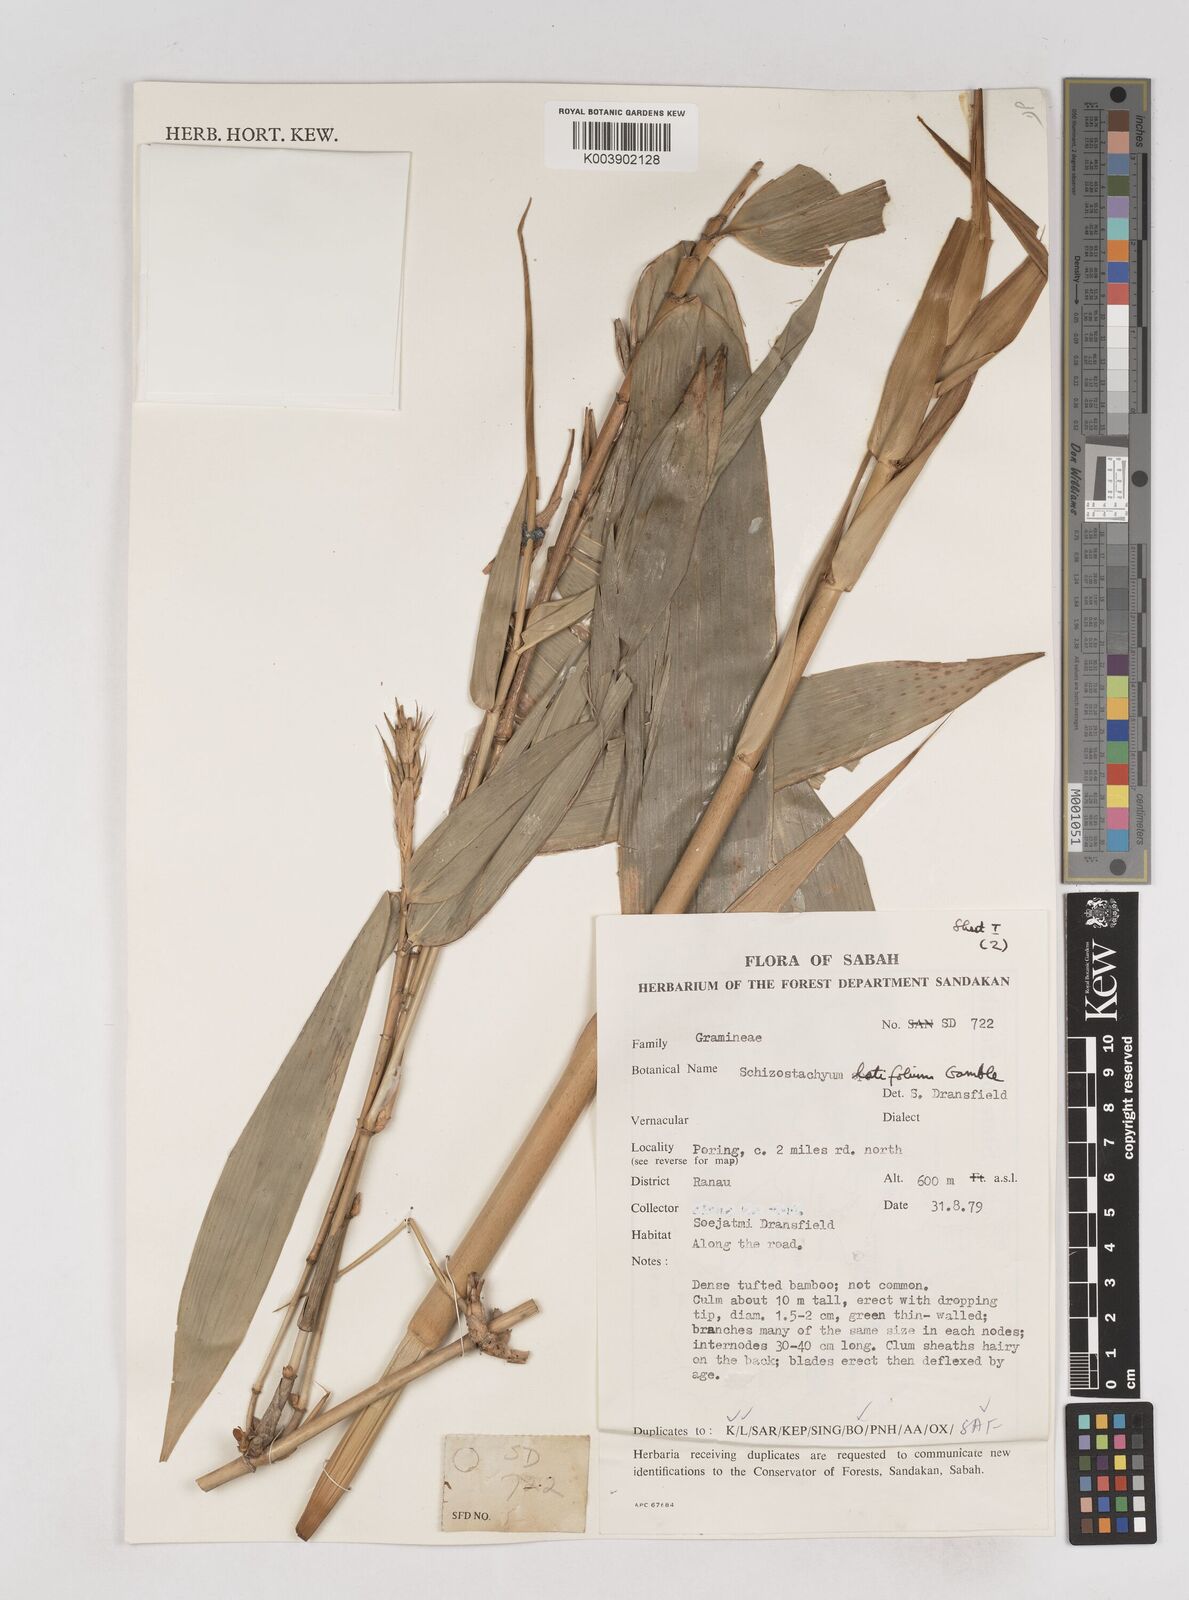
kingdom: Plantae
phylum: Tracheophyta
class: Liliopsida
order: Poales
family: Poaceae
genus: Schizostachyum
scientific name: Schizostachyum
